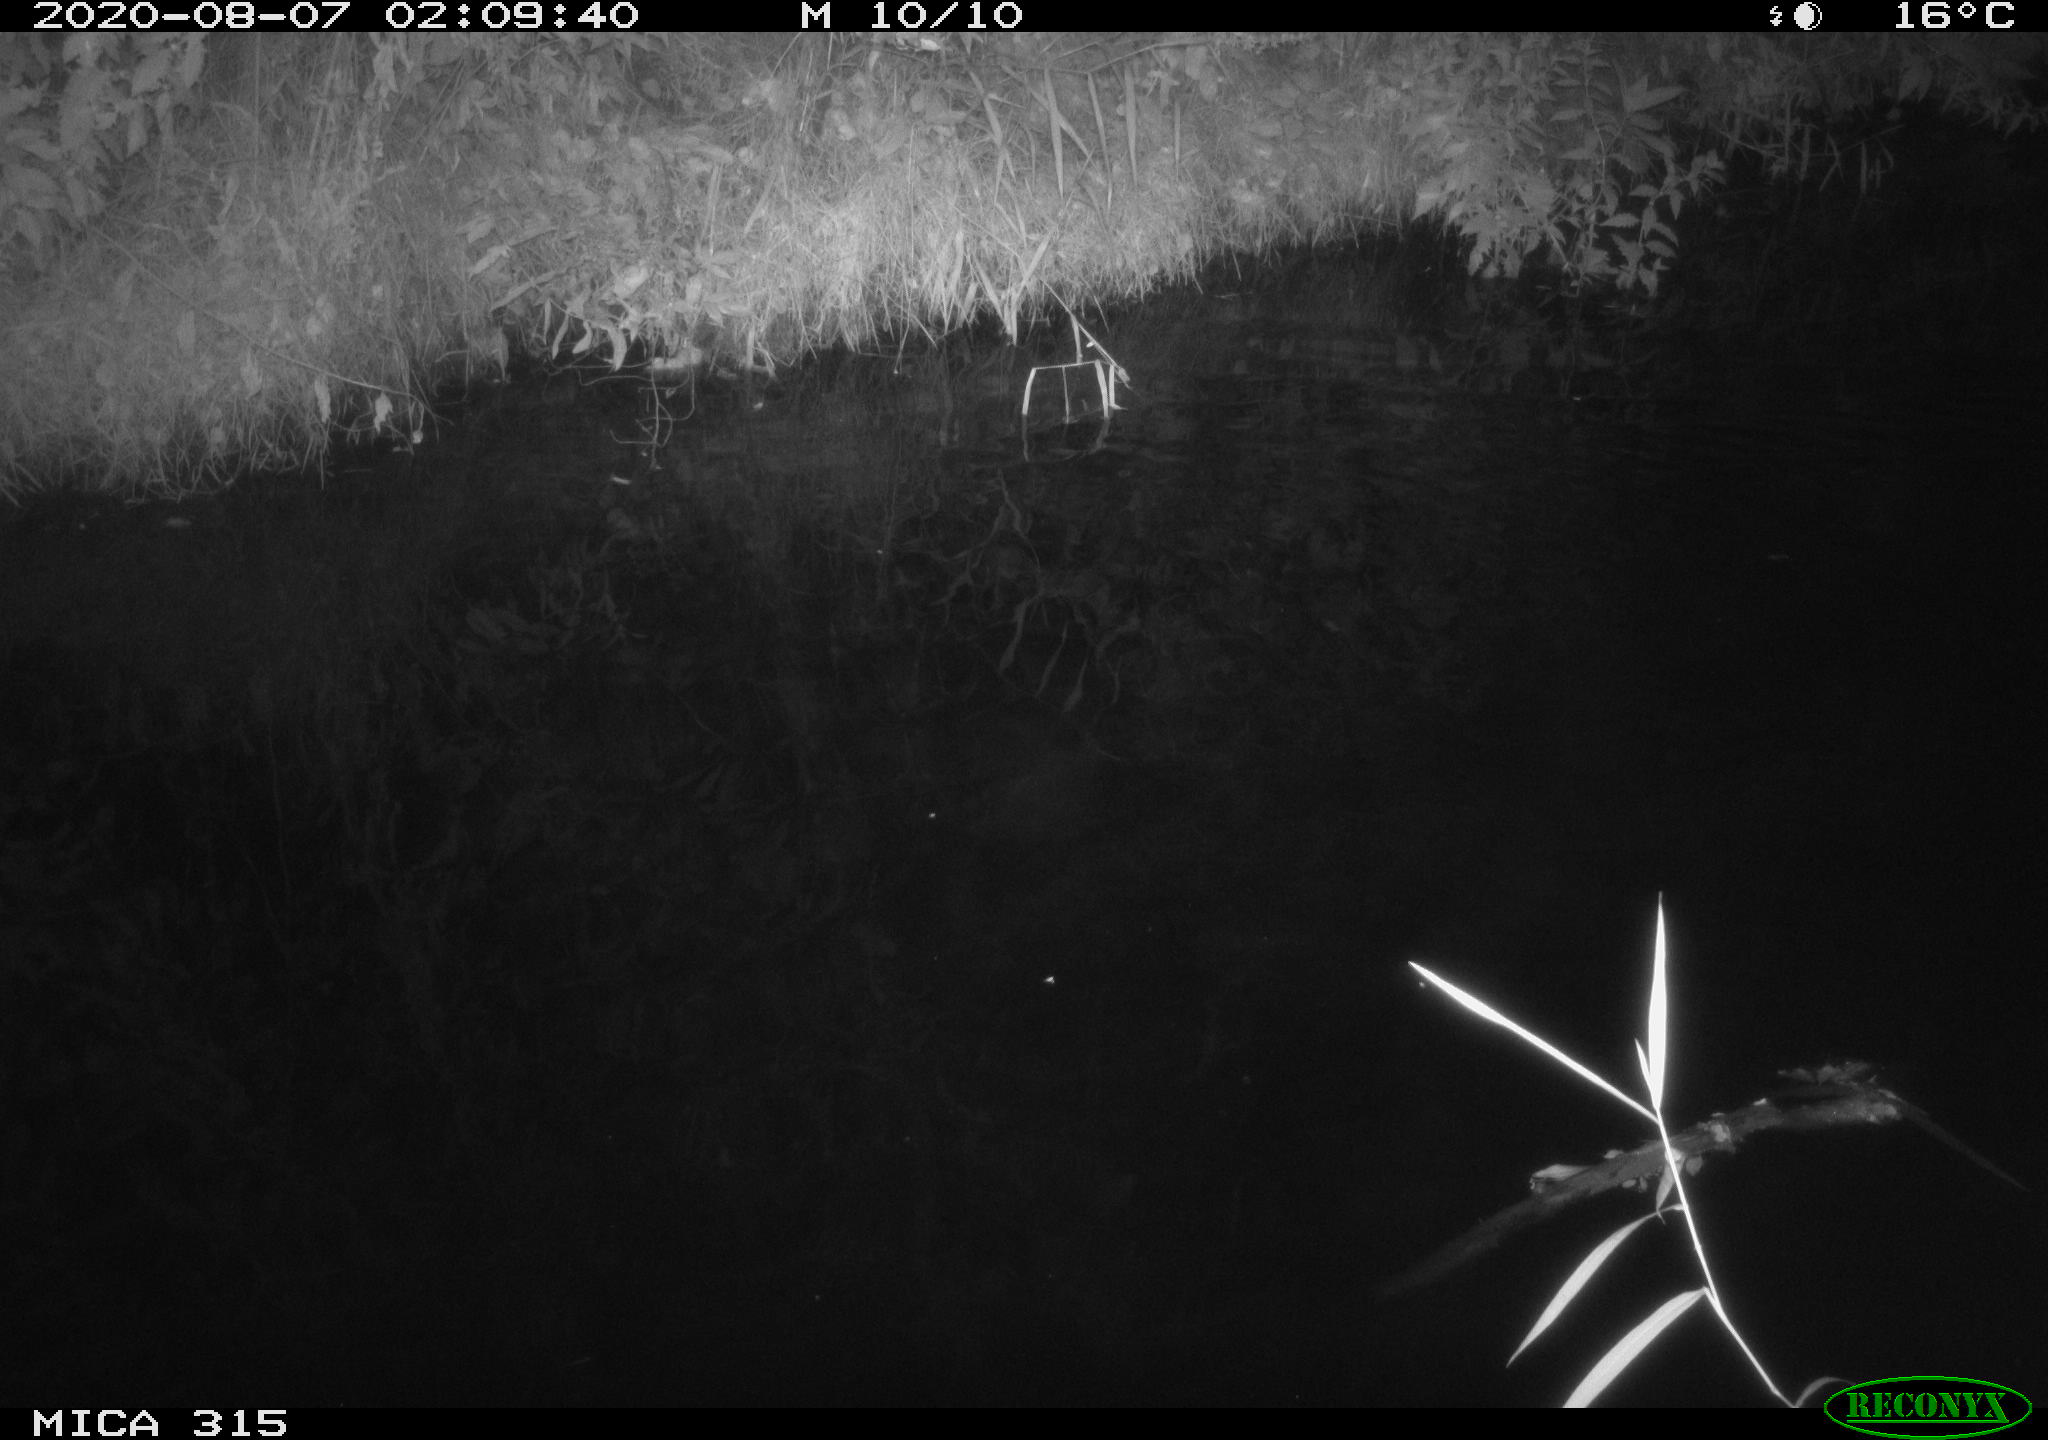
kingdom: Animalia
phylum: Chordata
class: Aves
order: Anseriformes
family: Anatidae
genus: Anas
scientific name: Anas platyrhynchos
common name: Mallard
